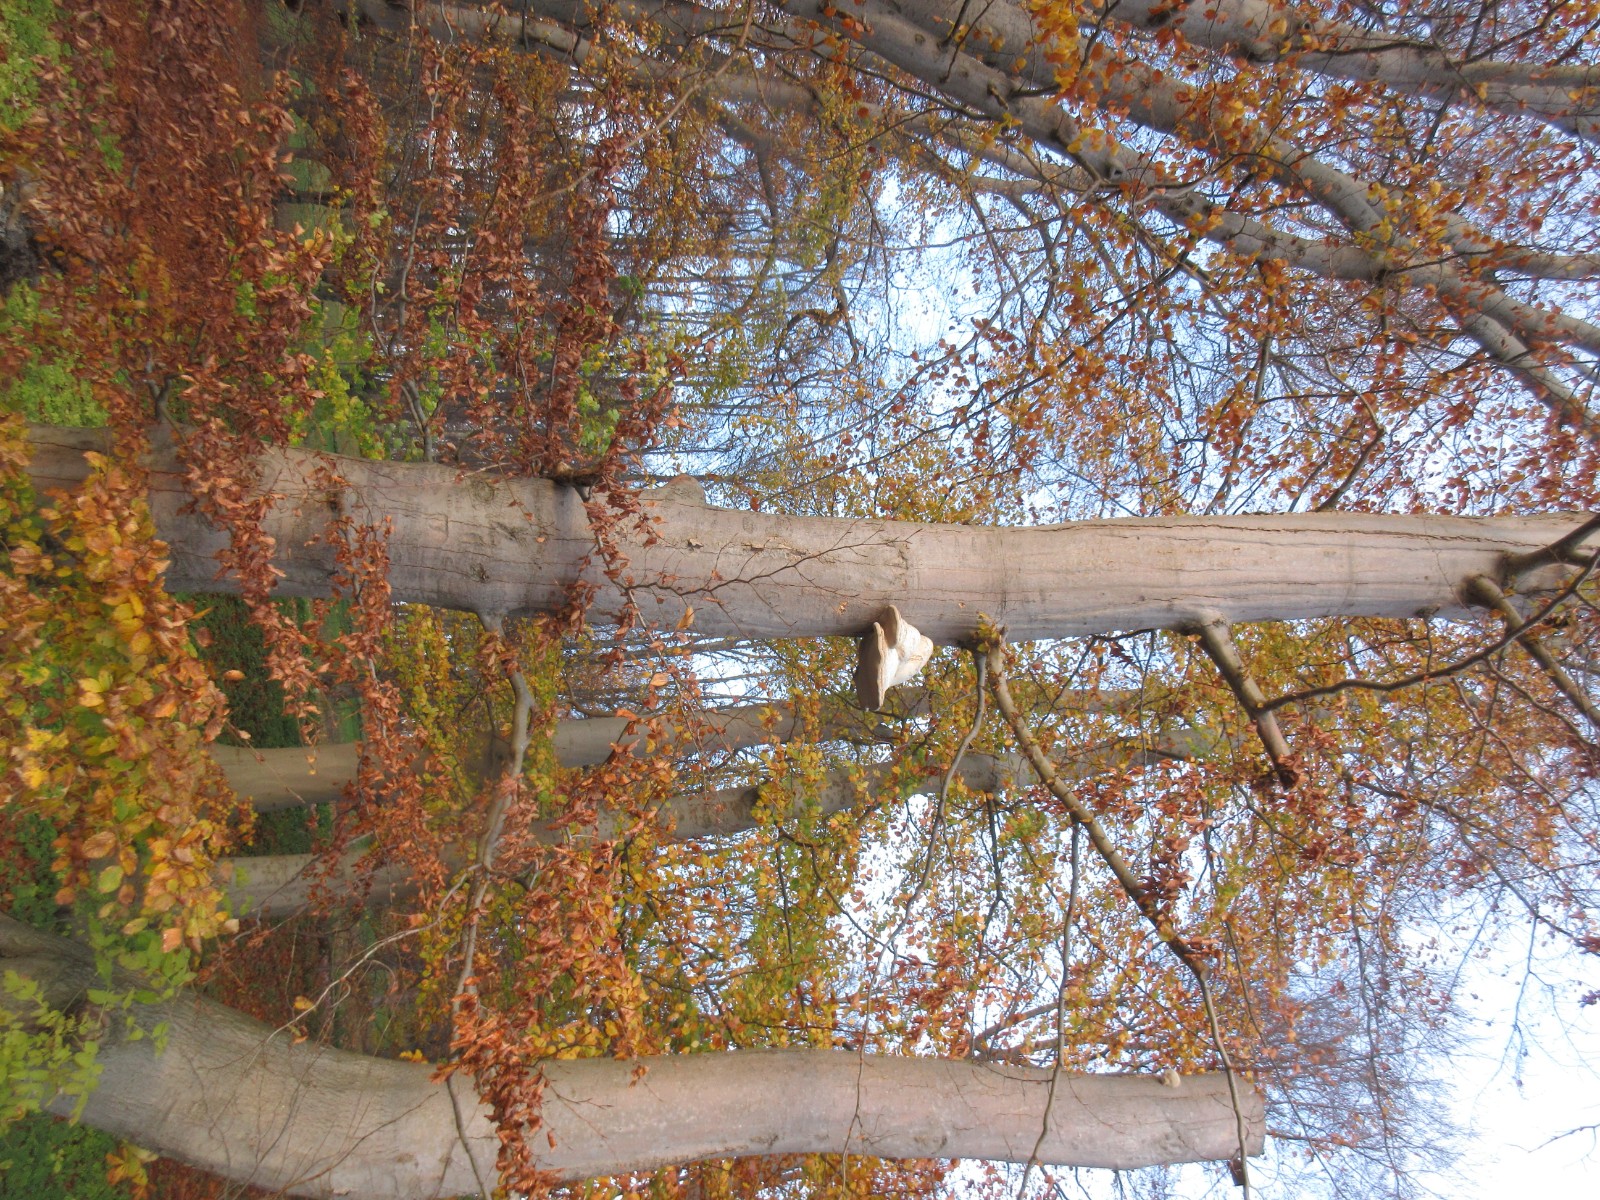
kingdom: Fungi
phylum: Basidiomycota
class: Agaricomycetes
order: Polyporales
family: Polyporaceae
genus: Fomes
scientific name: Fomes fomentarius
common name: tøndersvamp
